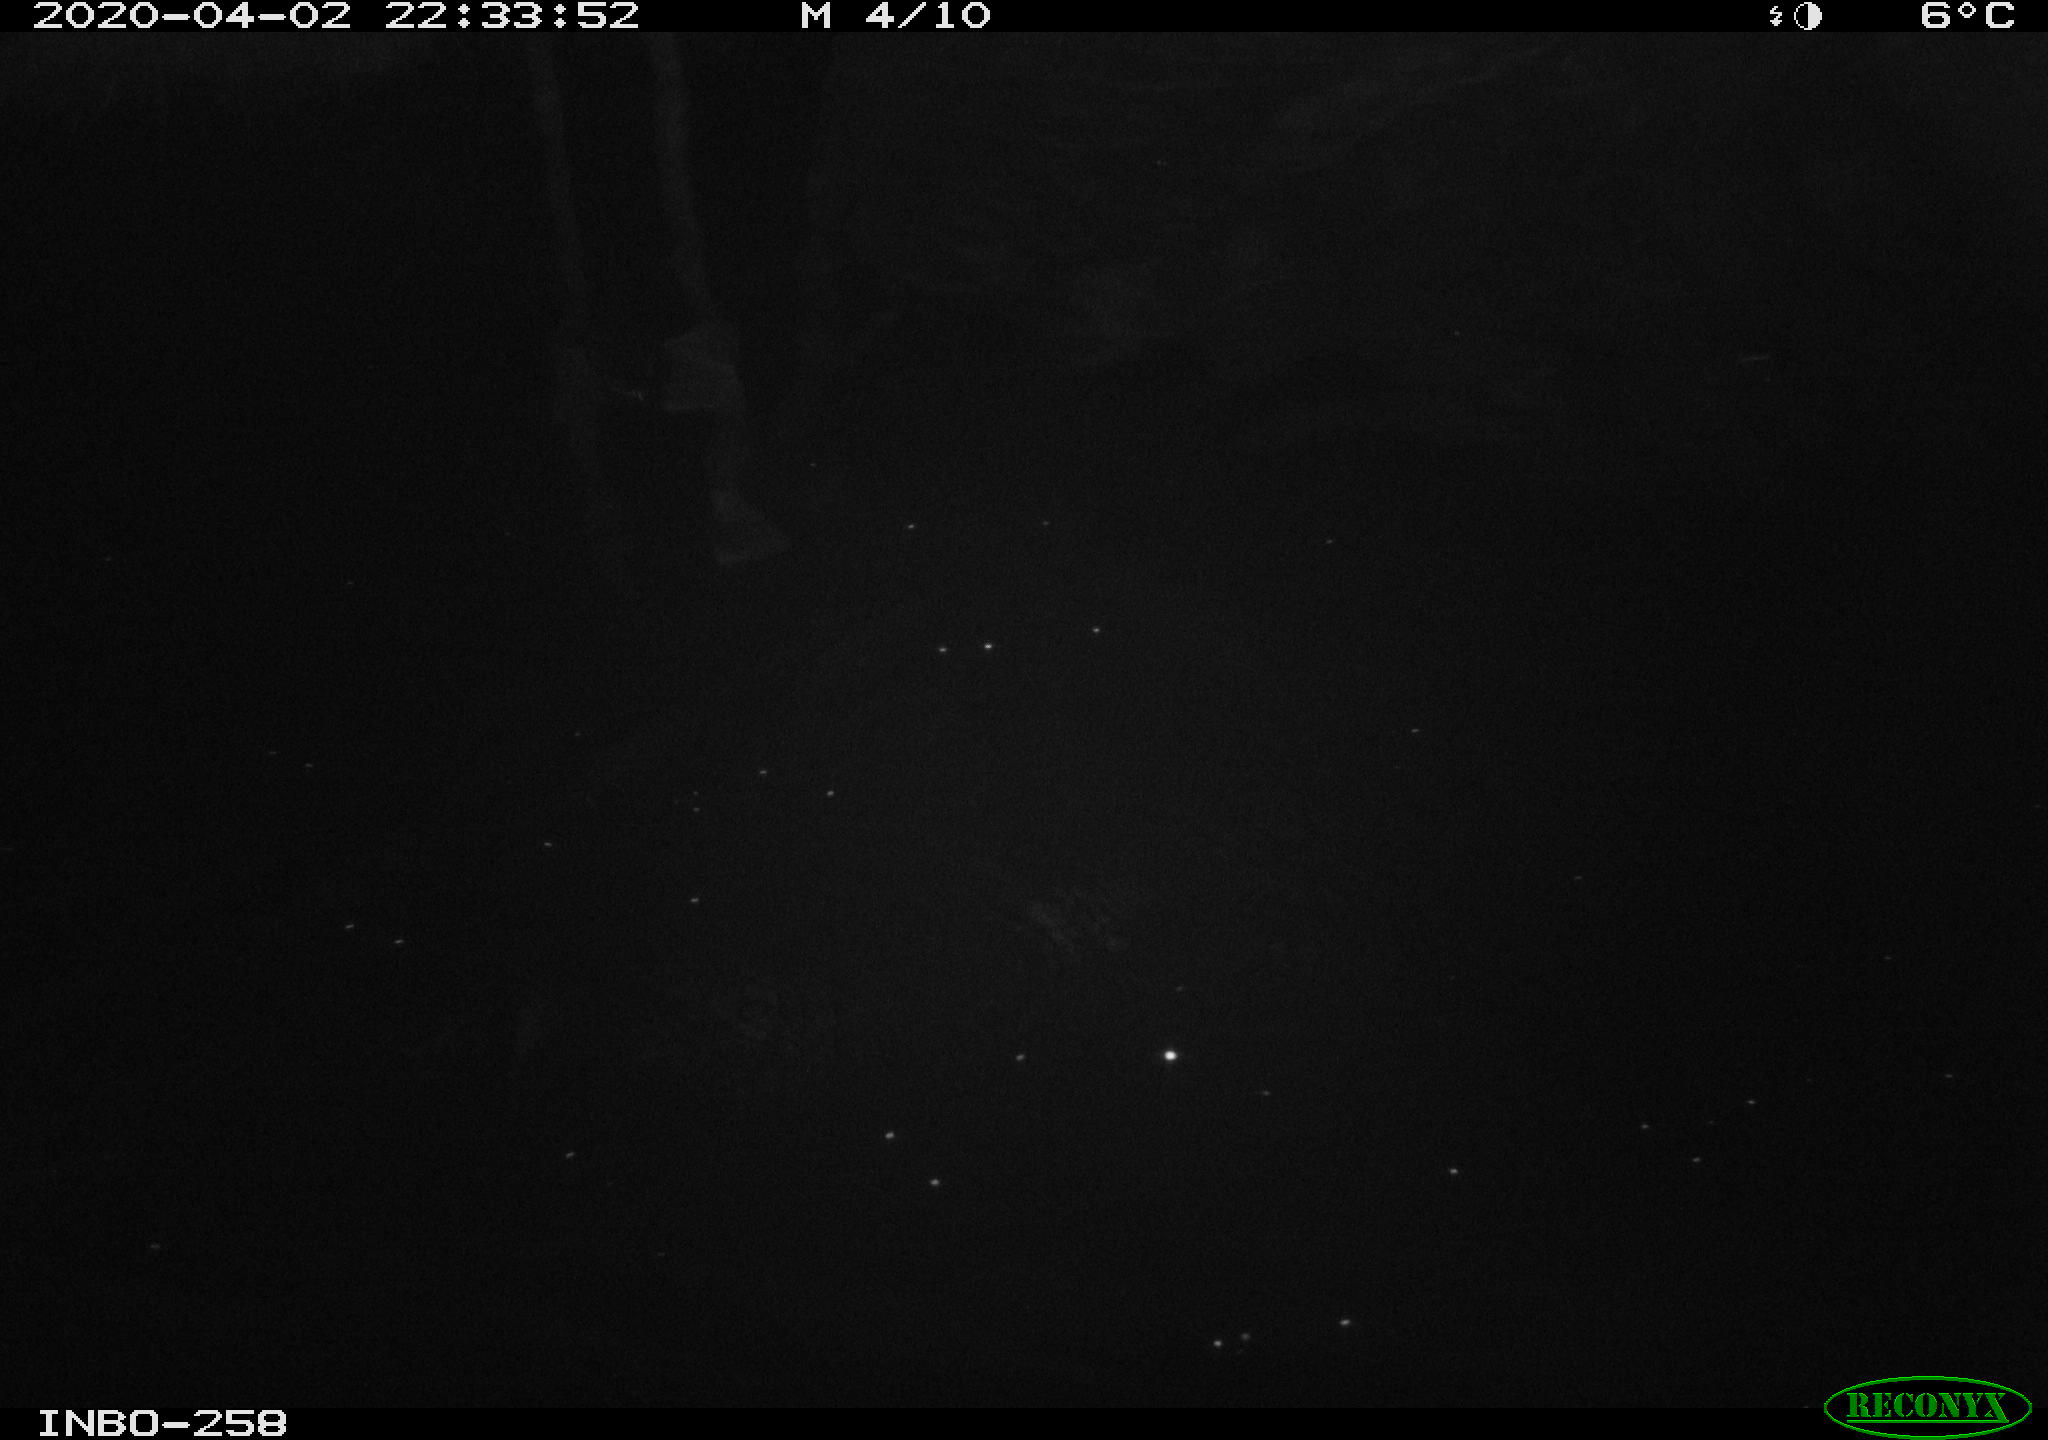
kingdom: Animalia
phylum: Chordata
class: Aves
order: Anseriformes
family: Anatidae
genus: Anas
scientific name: Anas platyrhynchos
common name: Mallard
